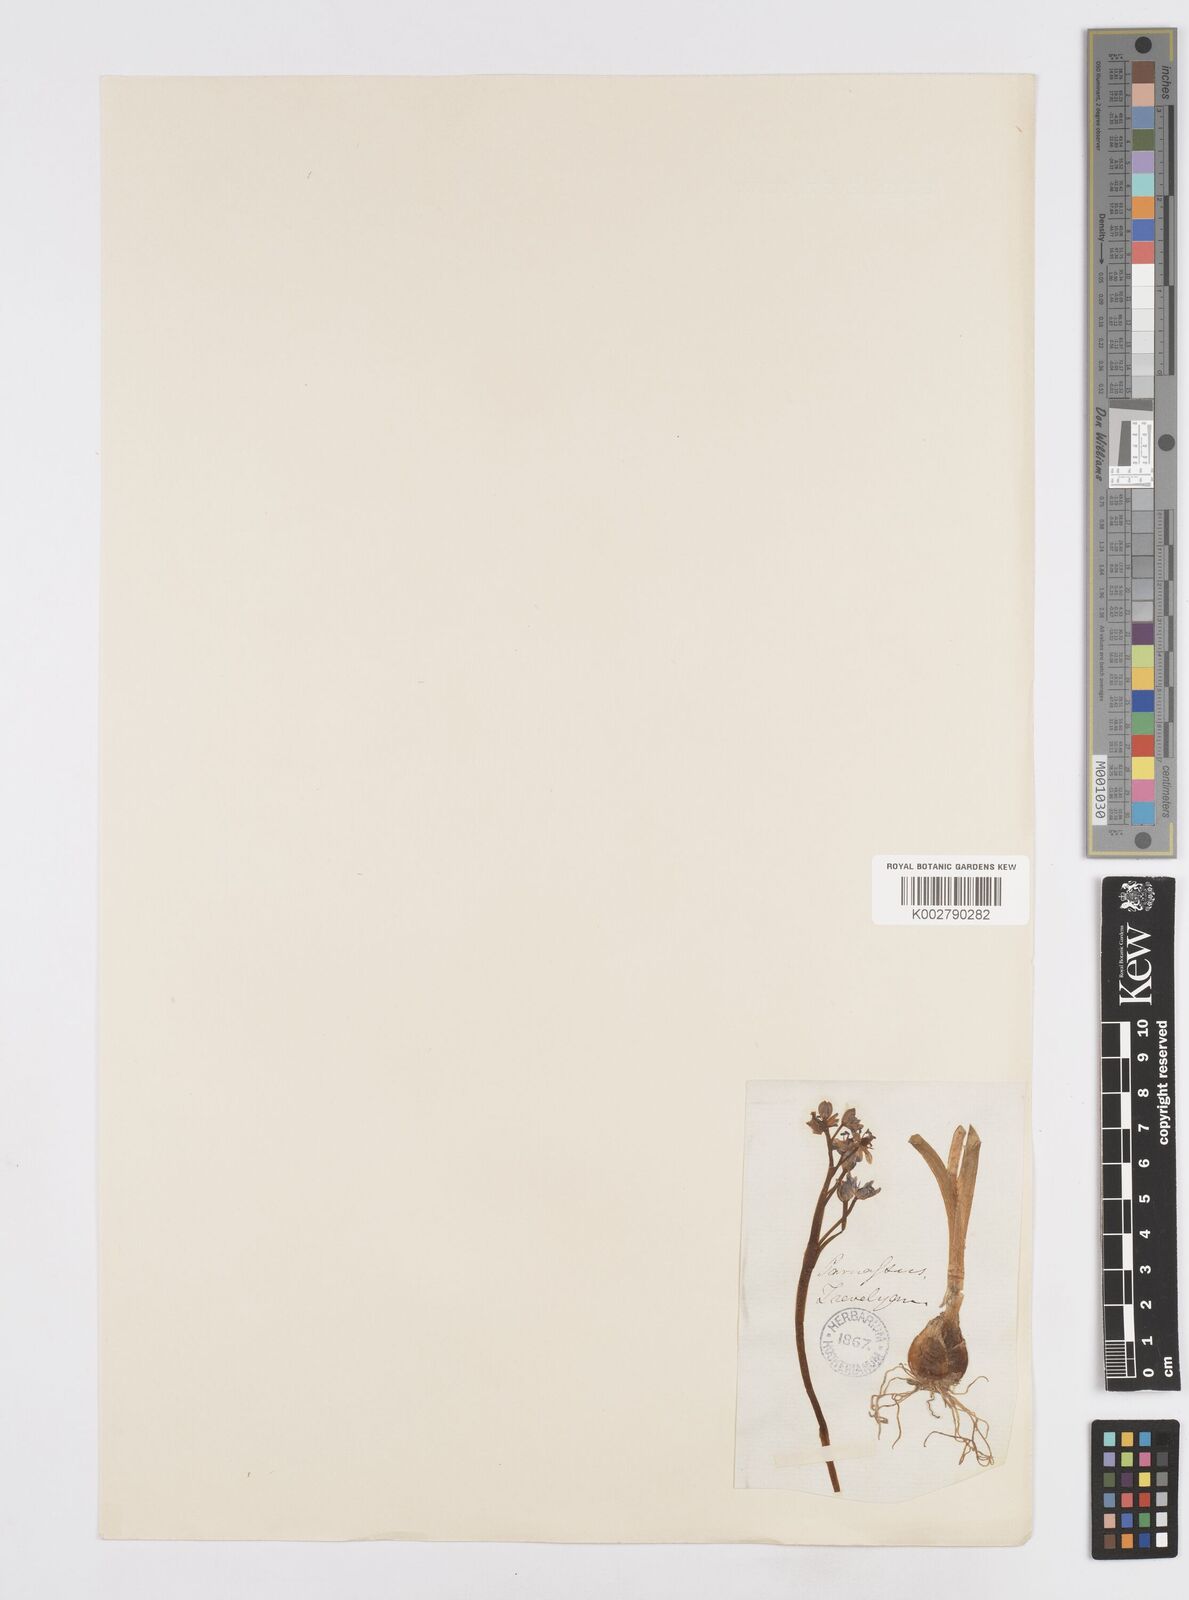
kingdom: Plantae
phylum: Tracheophyta
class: Liliopsida
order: Asparagales
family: Asparagaceae
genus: Scilla
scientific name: Scilla nivalis
